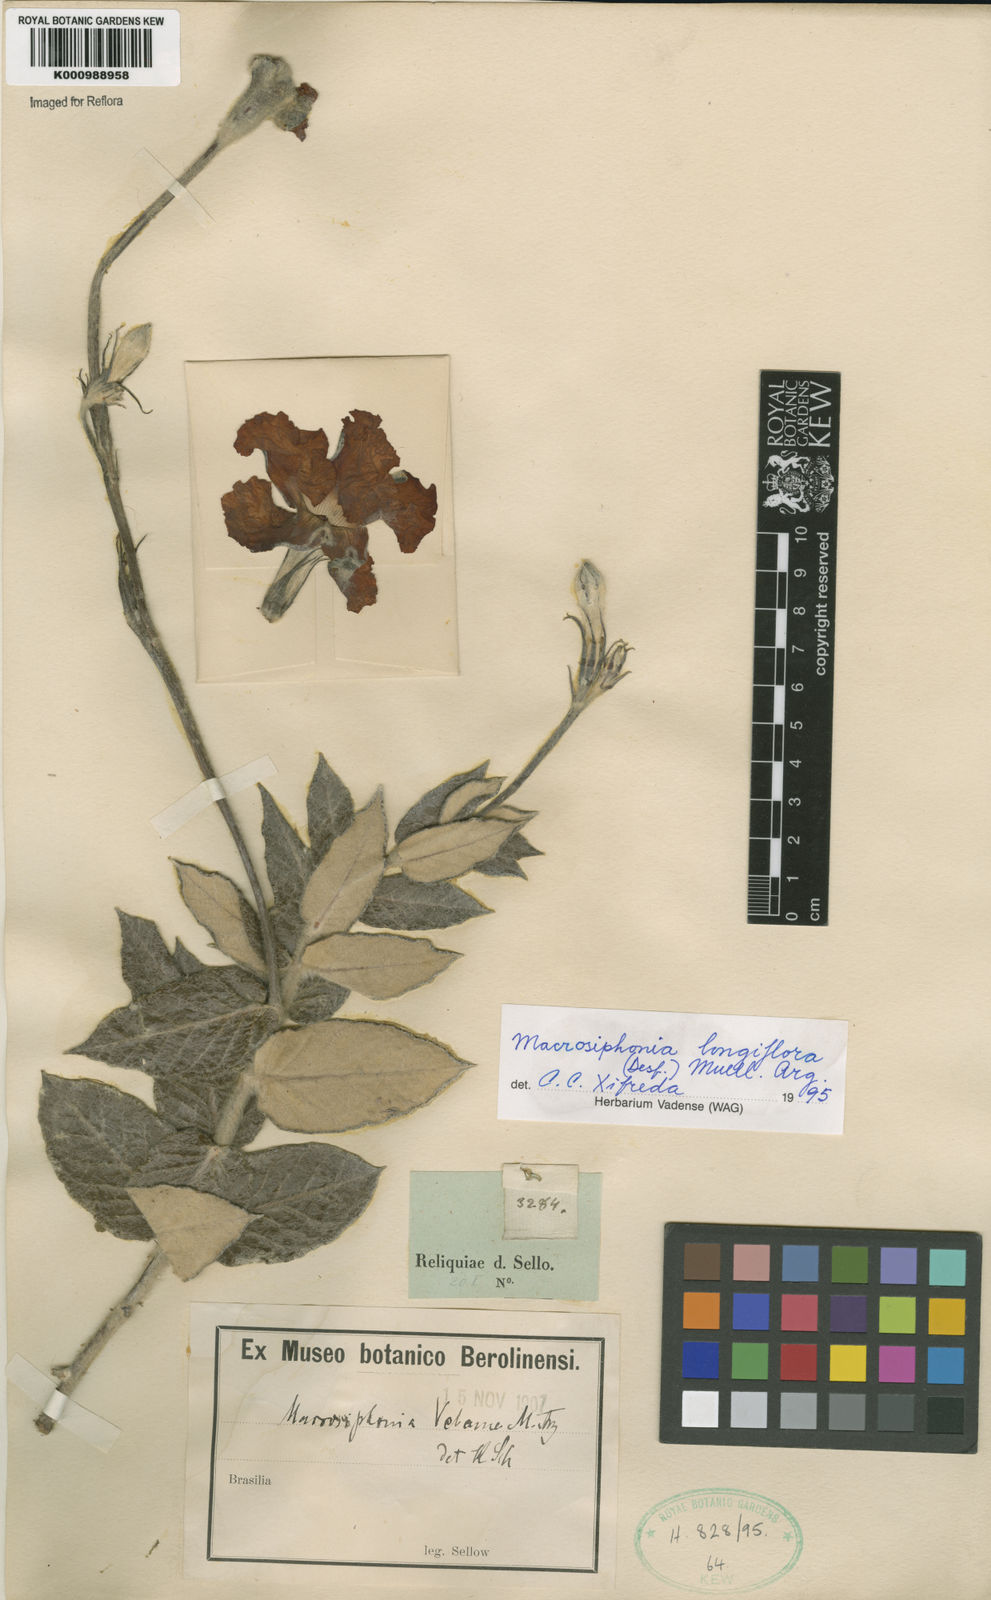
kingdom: Plantae
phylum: Tracheophyta
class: Magnoliopsida
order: Gentianales
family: Apocynaceae
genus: Mandevilla
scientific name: Mandevilla longiflora
